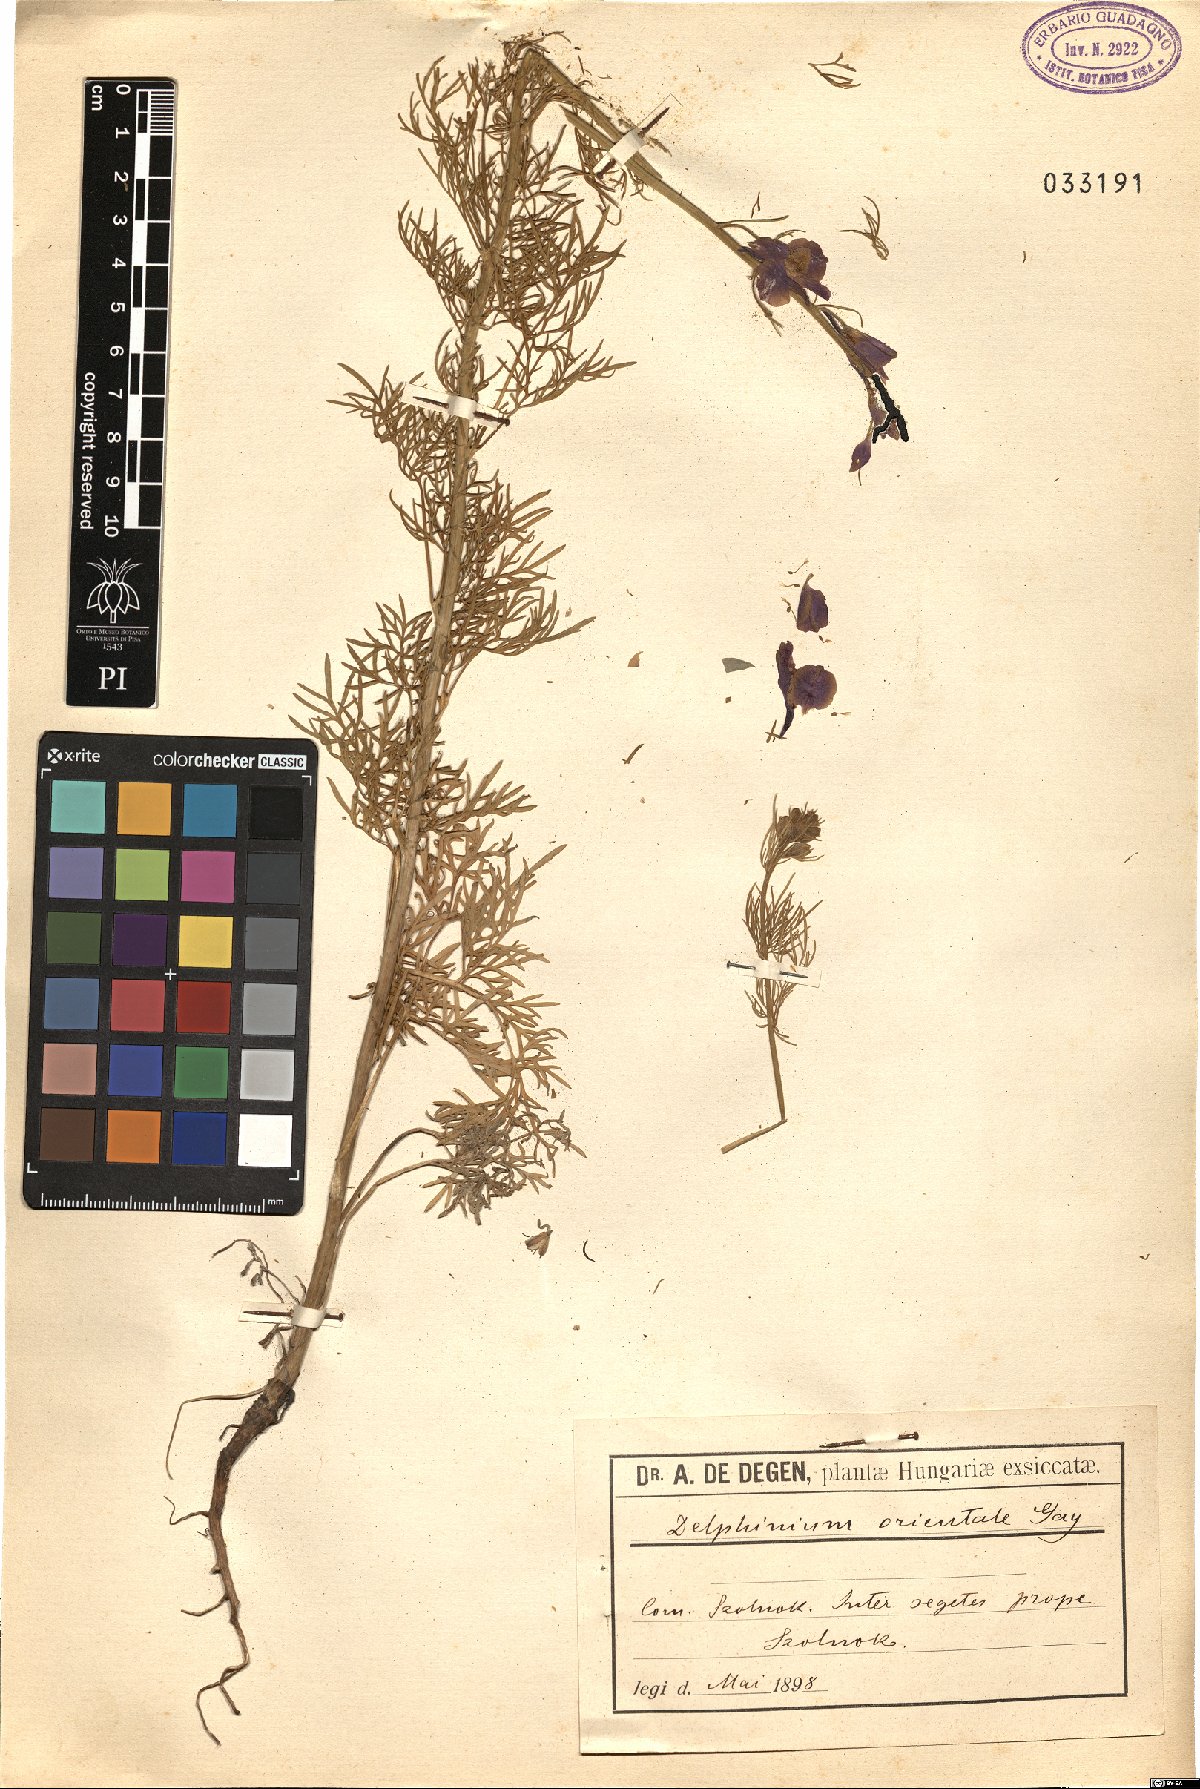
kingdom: Plantae
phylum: Tracheophyta
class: Magnoliopsida
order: Ranunculales
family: Ranunculaceae
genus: Delphinium
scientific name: Delphinium hispanicum
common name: Oriental knight's-spur
